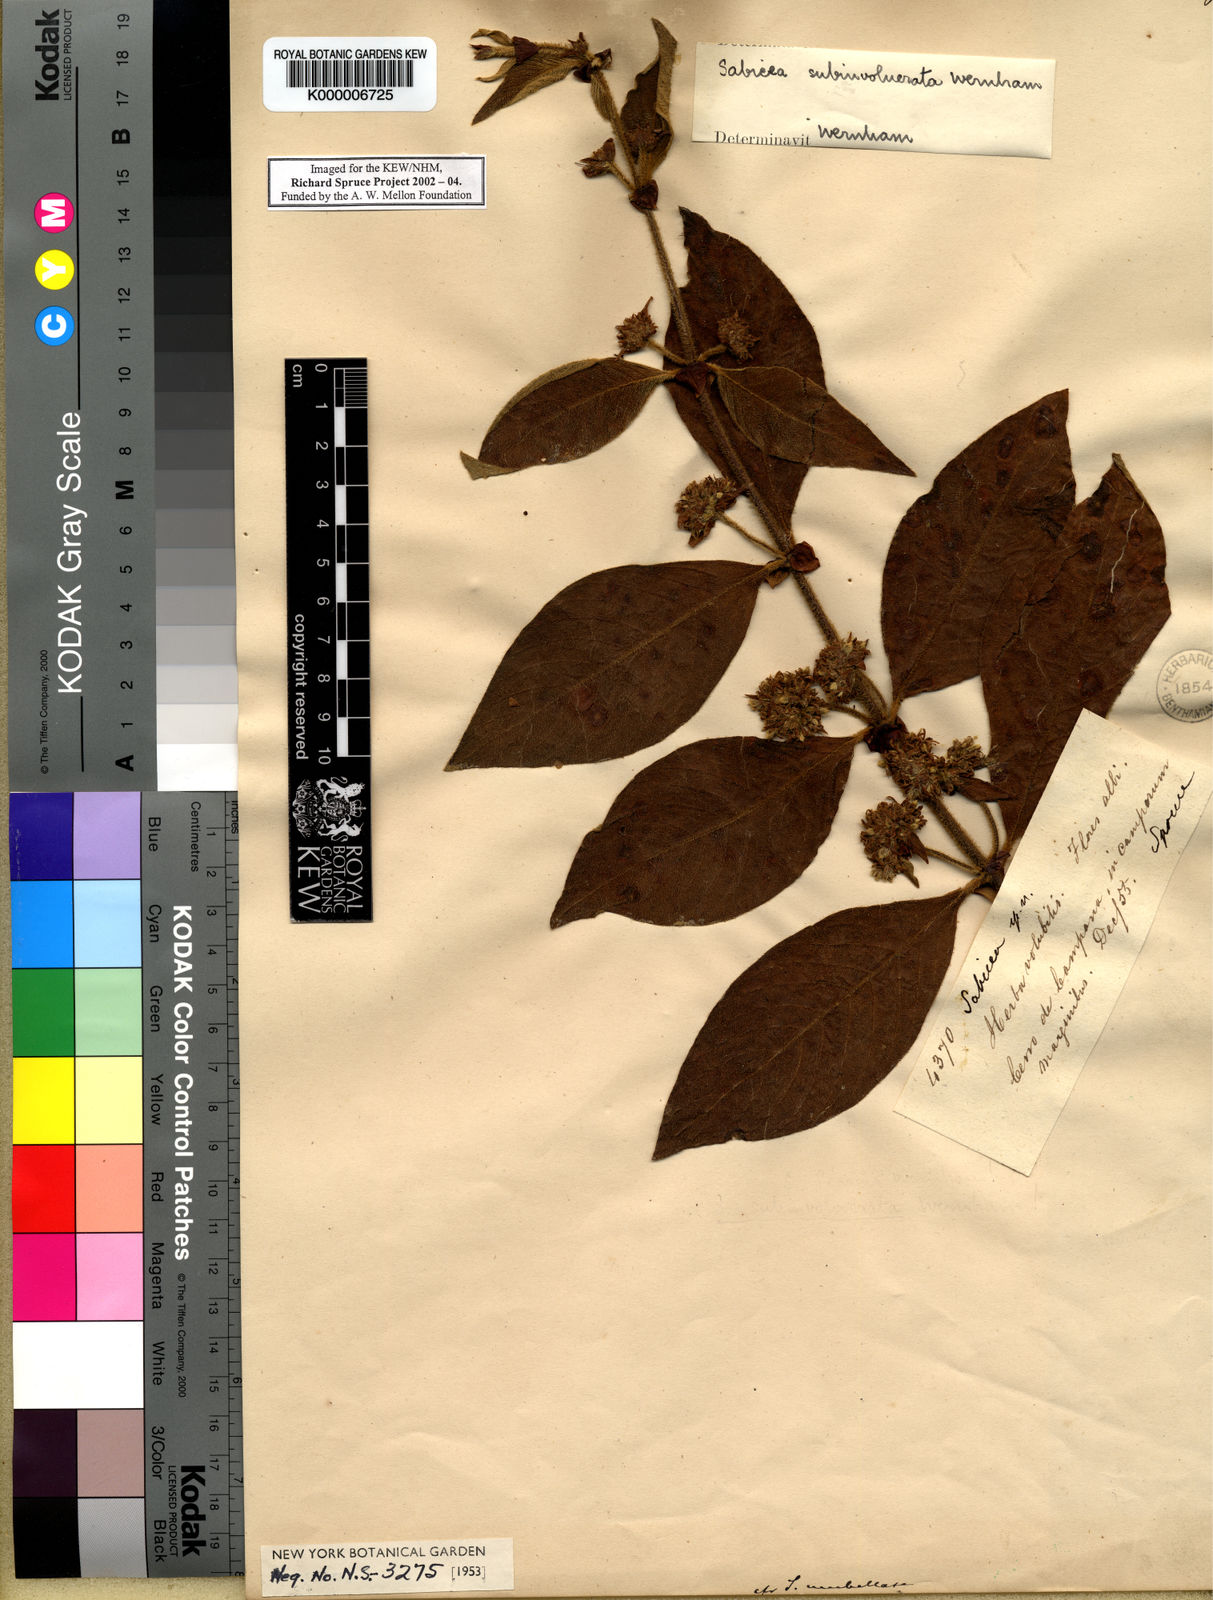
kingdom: Plantae
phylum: Tracheophyta
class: Magnoliopsida
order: Gentianales
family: Rubiaceae
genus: Sabicea
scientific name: Sabicea subinvolucrata
